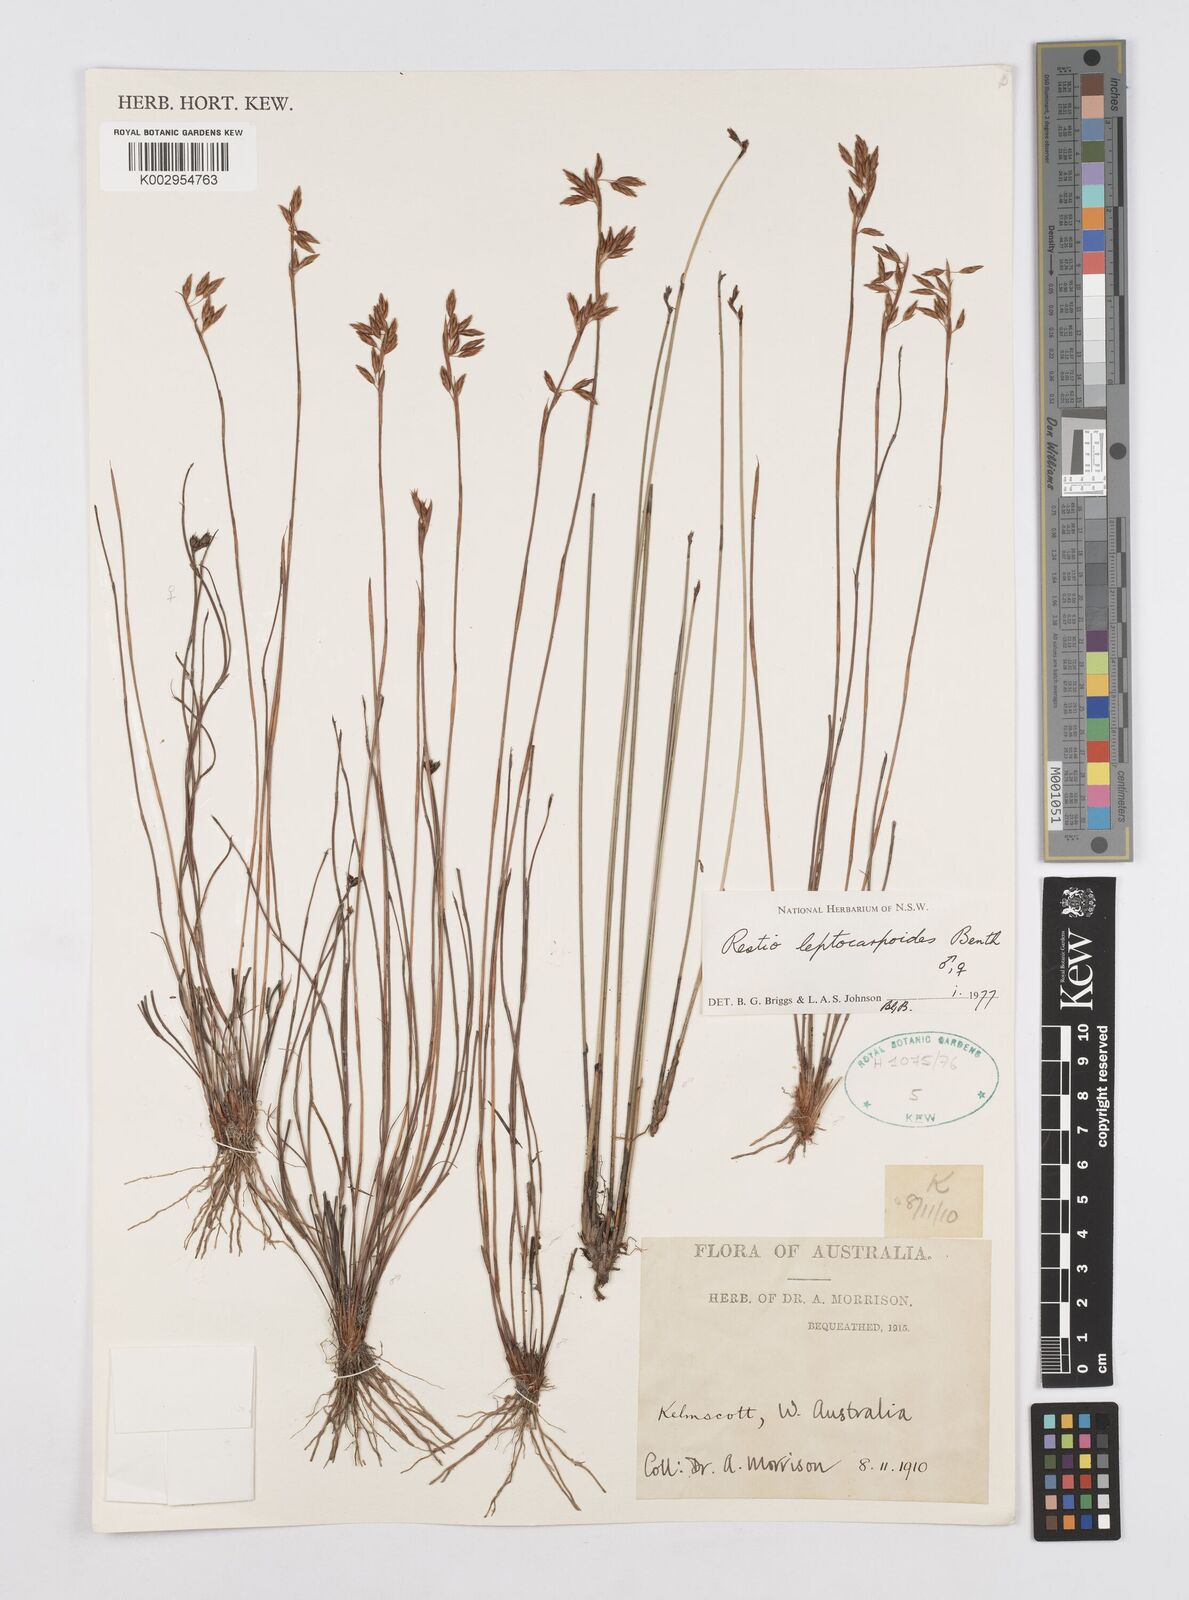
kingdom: Plantae
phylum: Tracheophyta
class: Liliopsida
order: Poales
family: Restionaceae
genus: Cytogonidium
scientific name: Cytogonidium leptocarpoides
